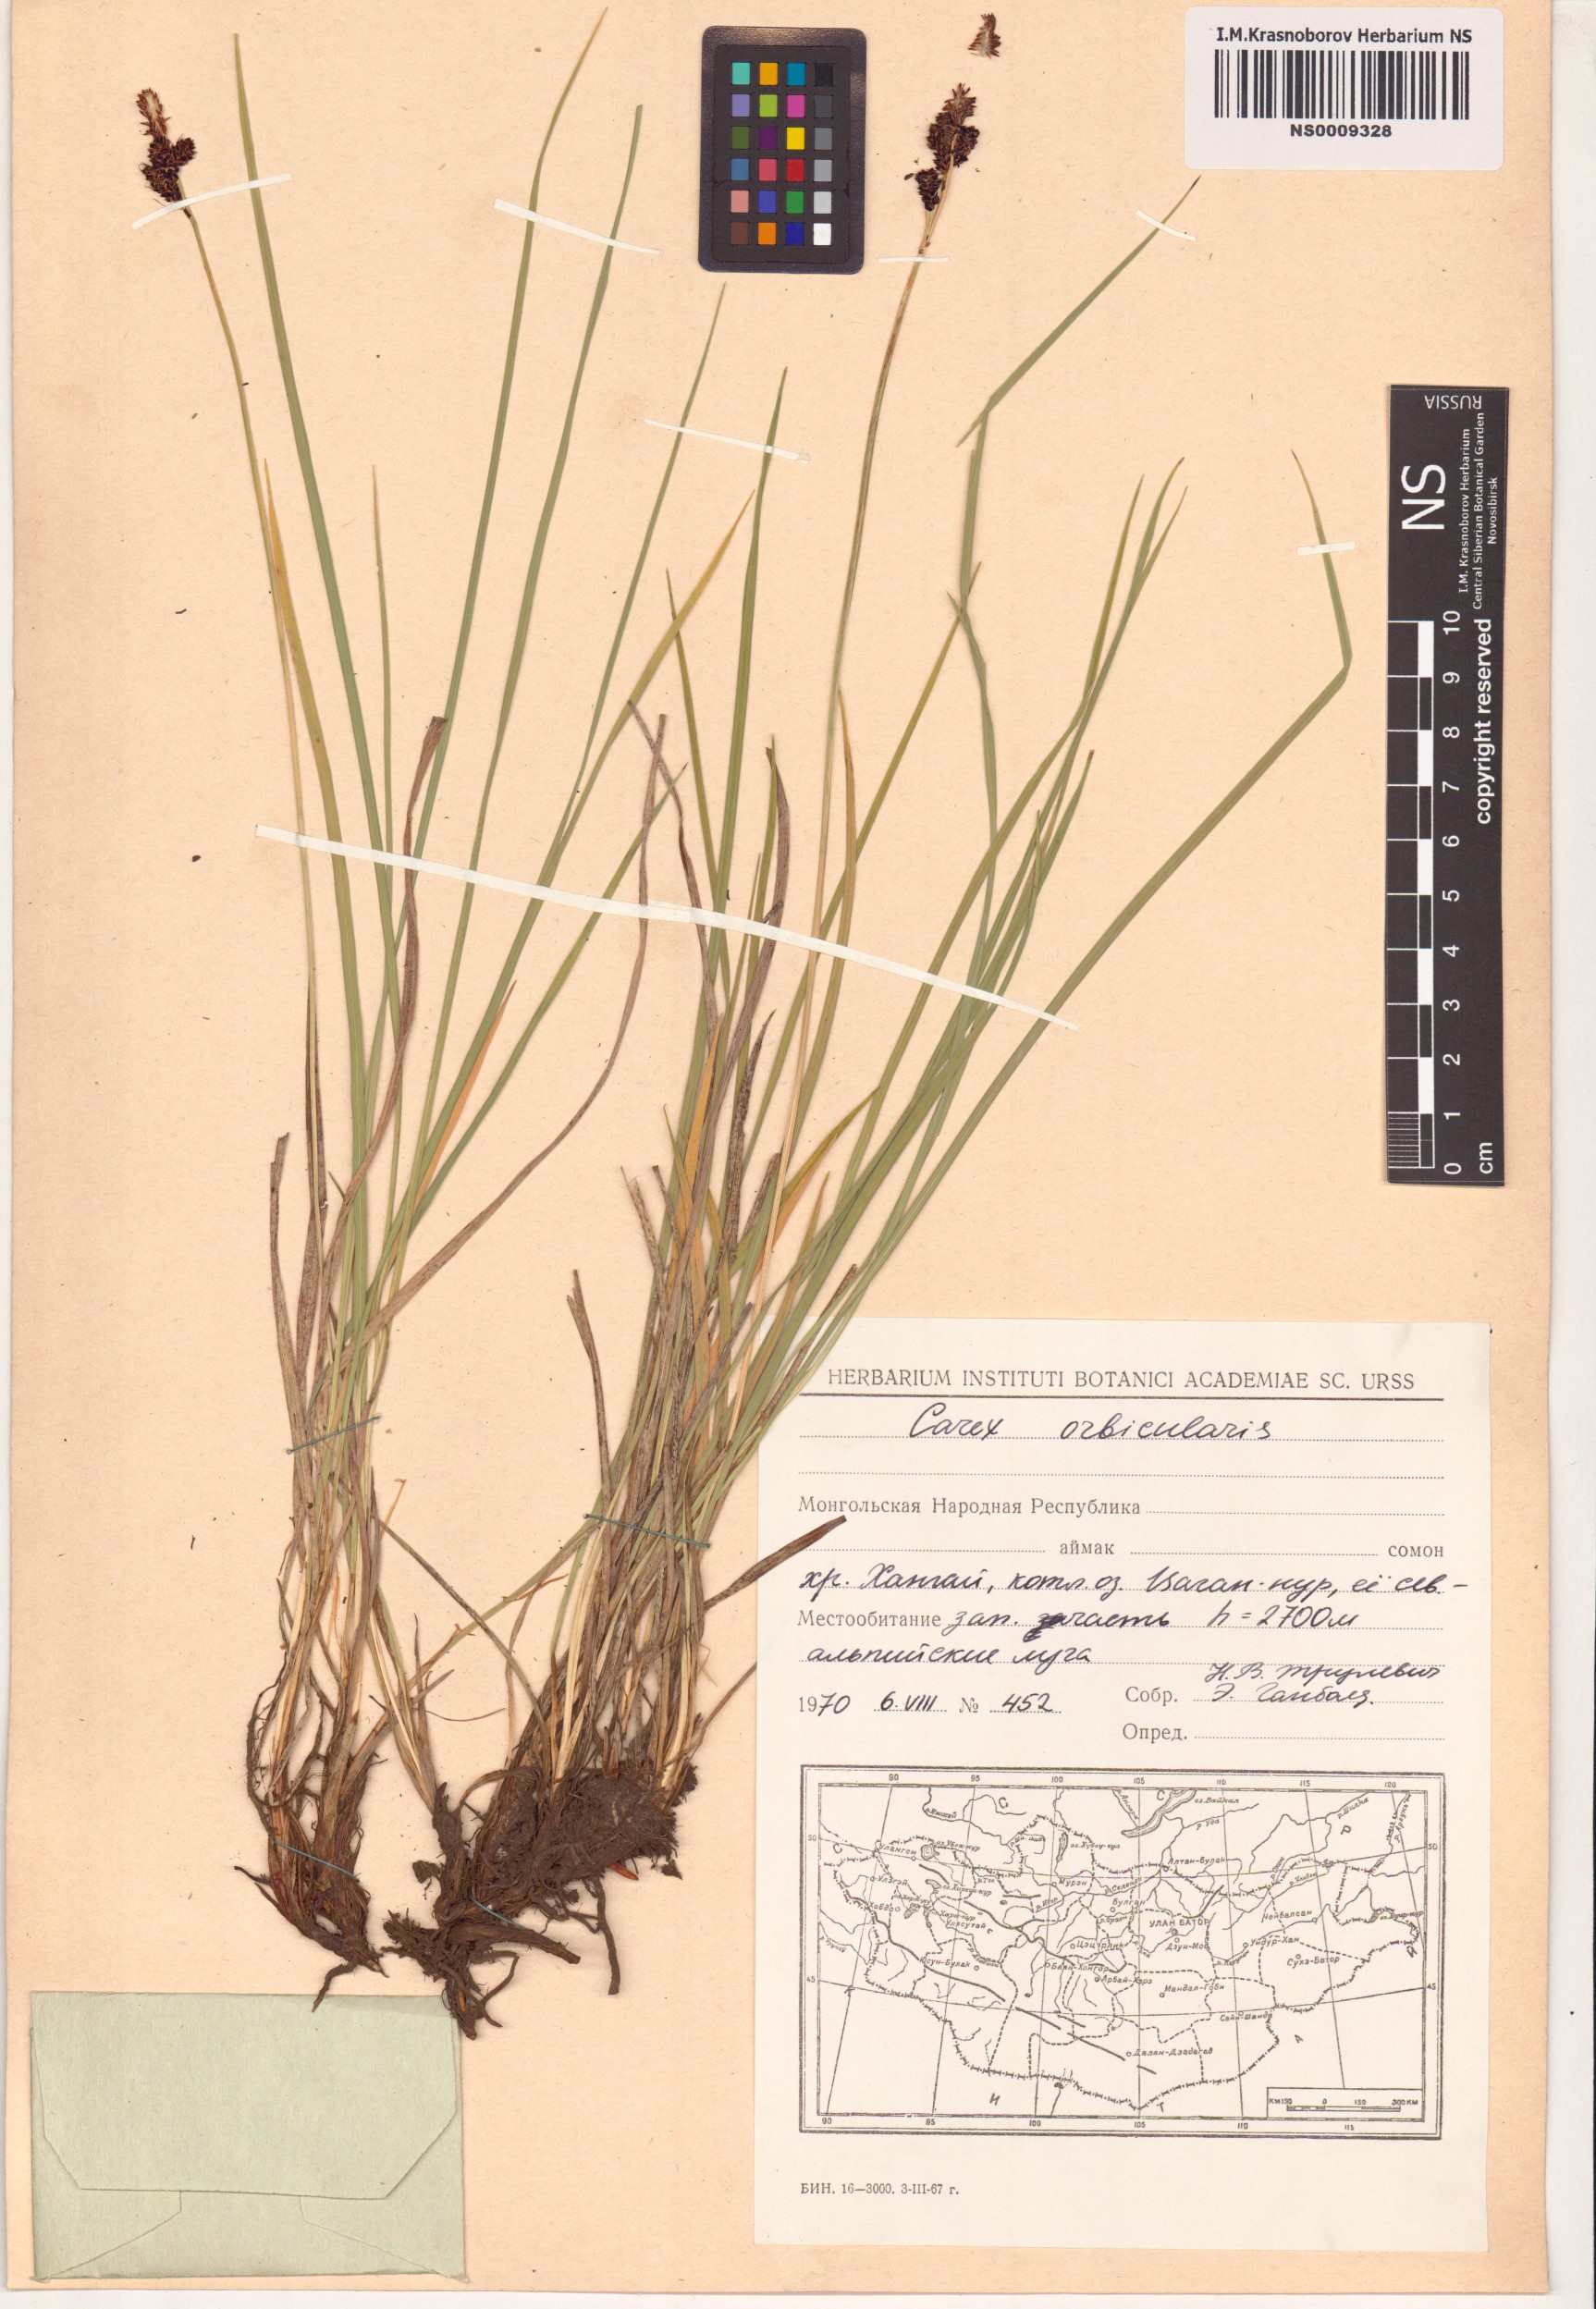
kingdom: Plantae
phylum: Tracheophyta
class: Liliopsida
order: Poales
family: Cyperaceae
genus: Carex
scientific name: Carex orbicularis
